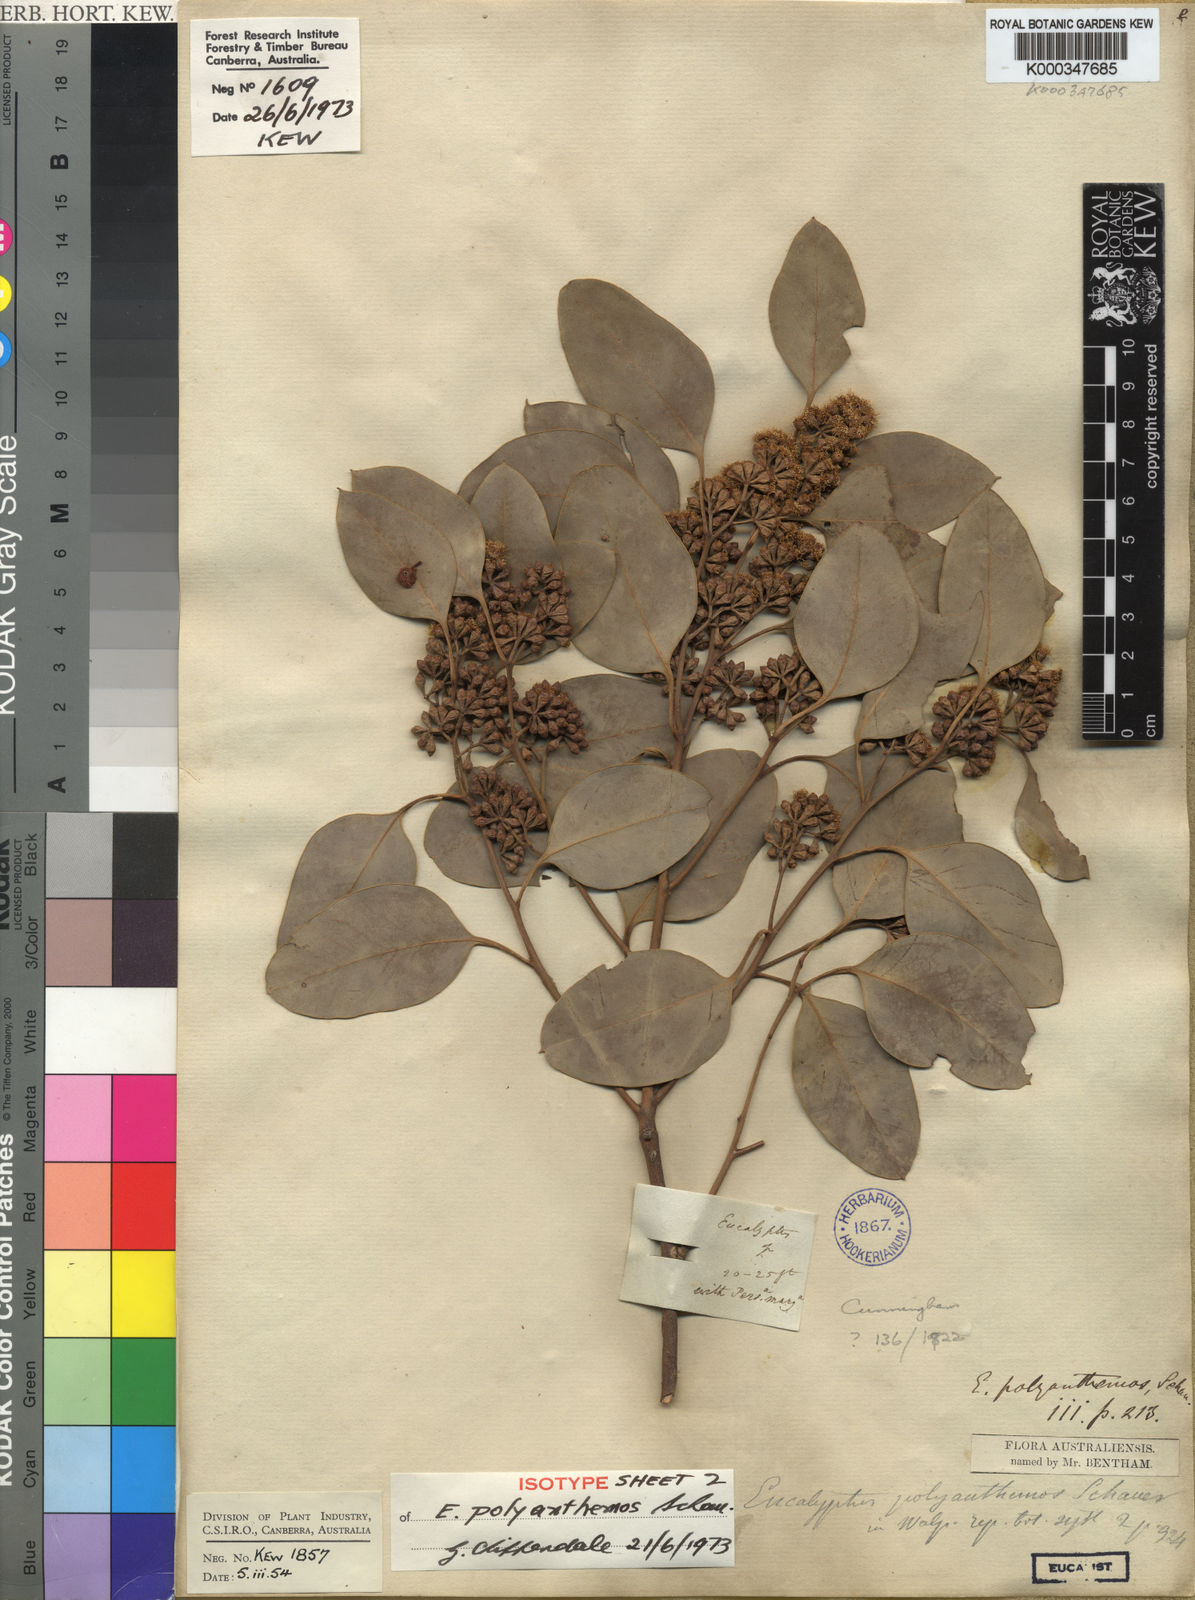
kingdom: Plantae
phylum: Tracheophyta
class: Magnoliopsida
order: Myrtales
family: Myrtaceae
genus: Eucalyptus
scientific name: Eucalyptus polyanthemos
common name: Red-box
